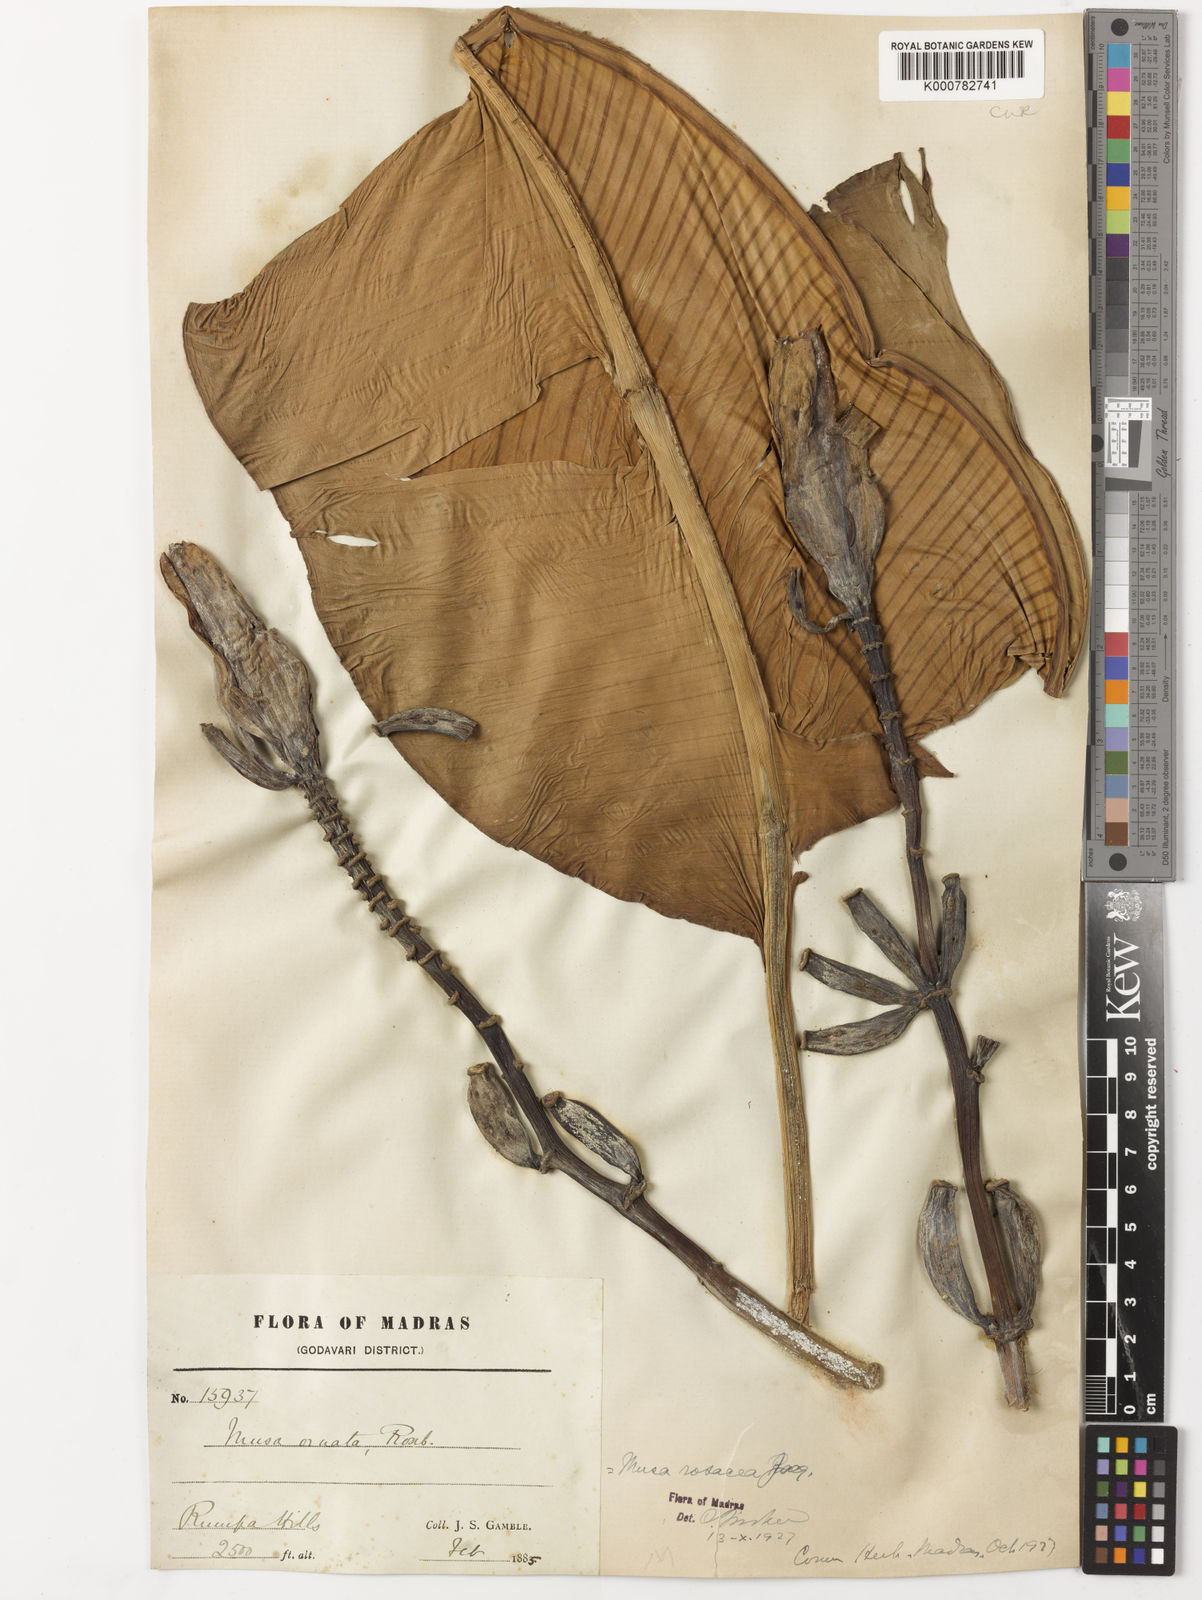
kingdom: Plantae
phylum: Tracheophyta
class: Liliopsida
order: Zingiberales
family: Musaceae
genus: Musa
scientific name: Musa balbisiana
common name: Plantain
